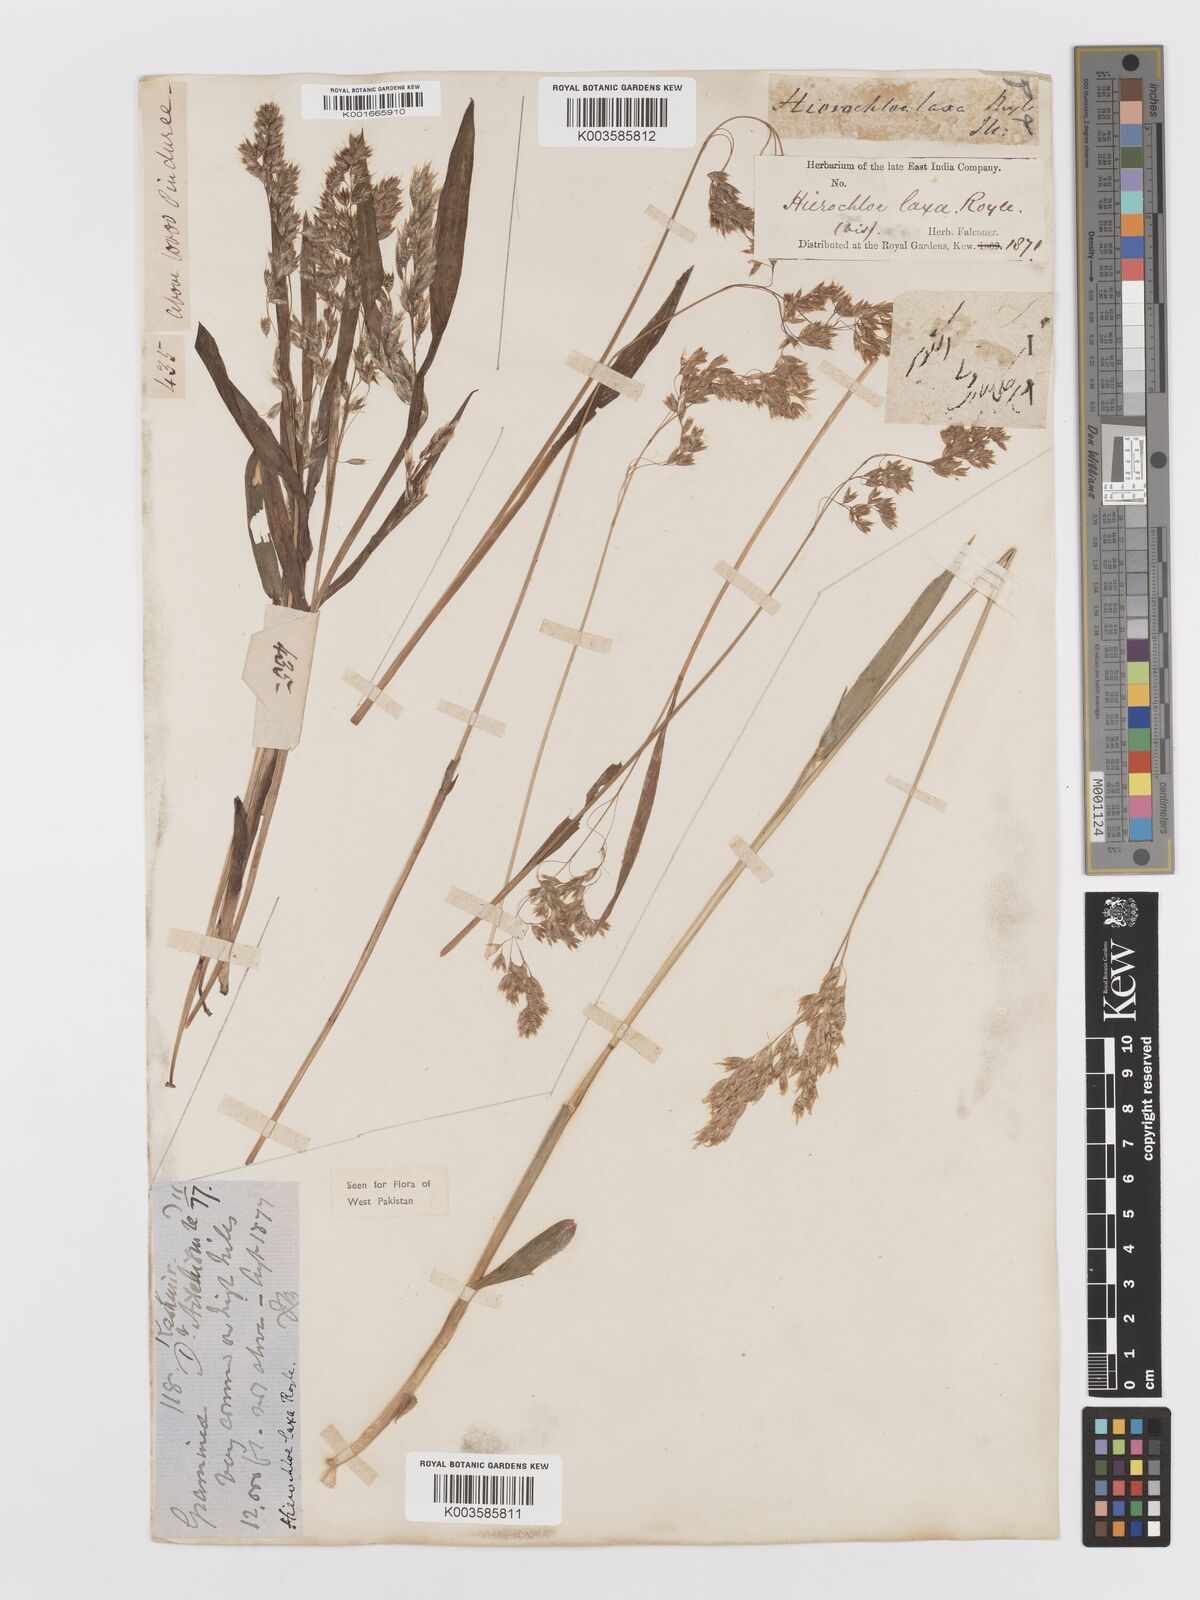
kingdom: Plantae
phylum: Tracheophyta
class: Liliopsida
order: Poales
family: Poaceae
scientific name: Poaceae
